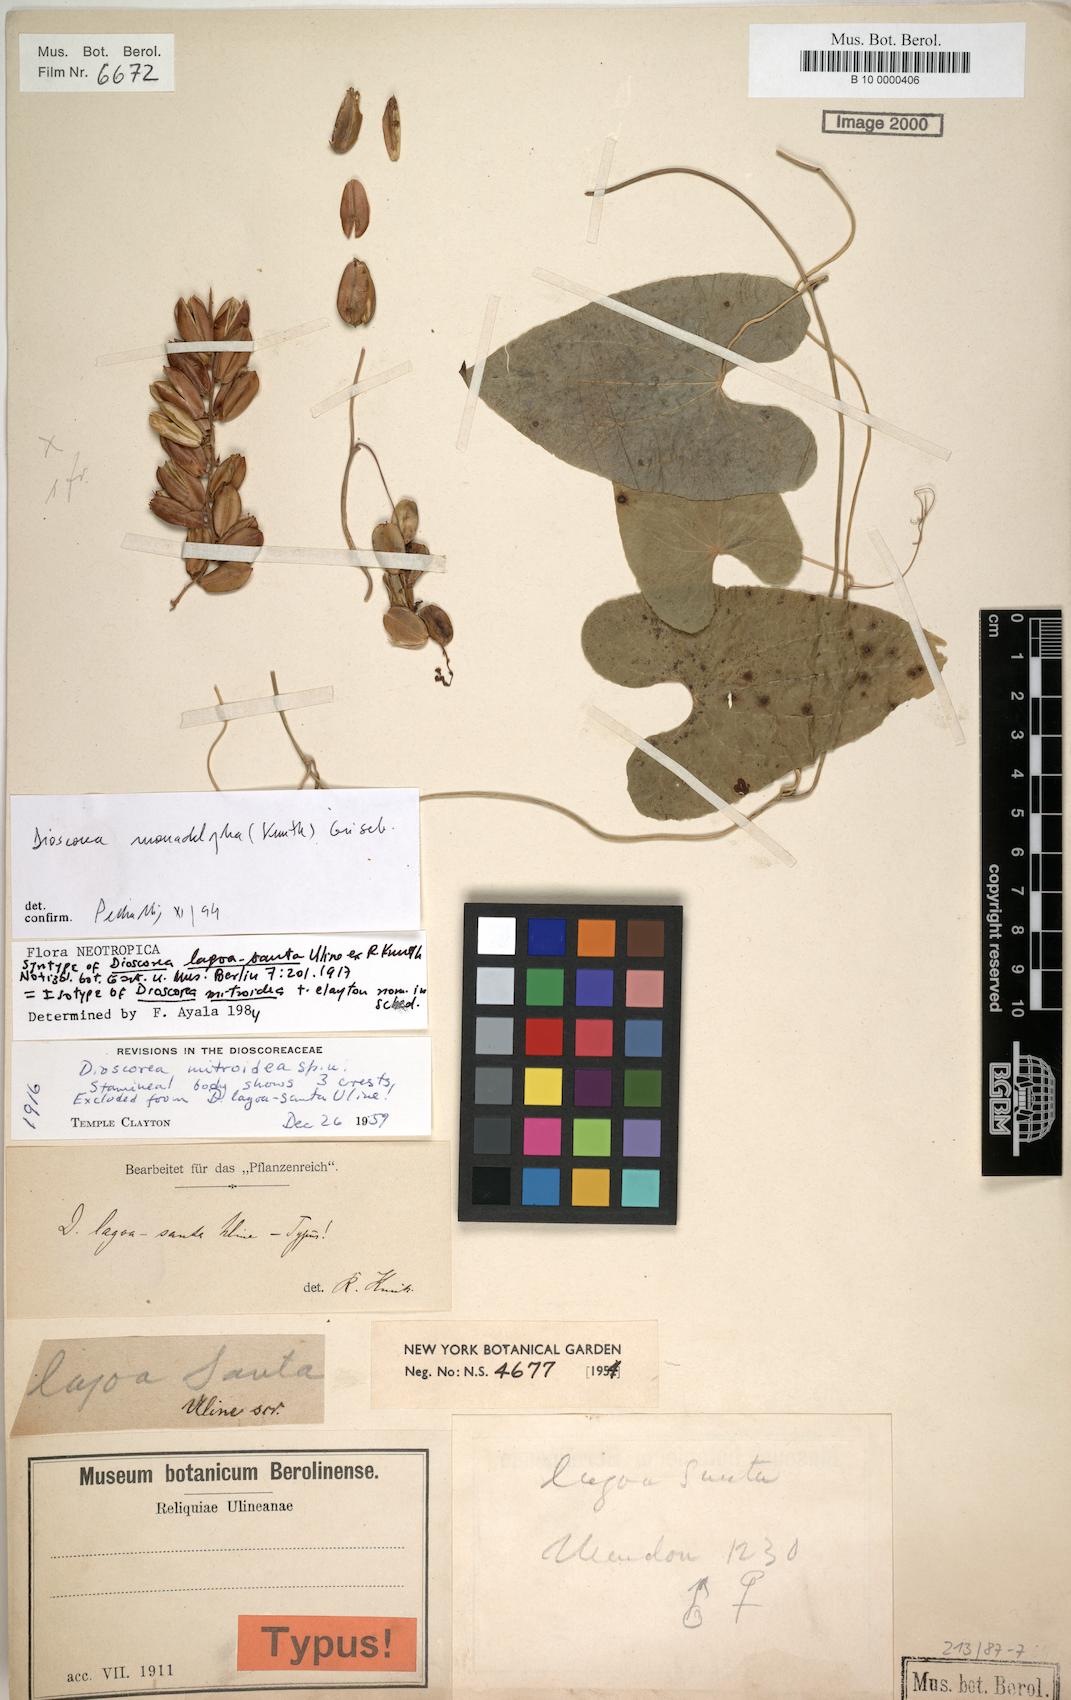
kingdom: Plantae
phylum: Tracheophyta
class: Liliopsida
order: Dioscoreales
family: Dioscoreaceae
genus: Dioscorea
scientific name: Dioscorea monadelpha
